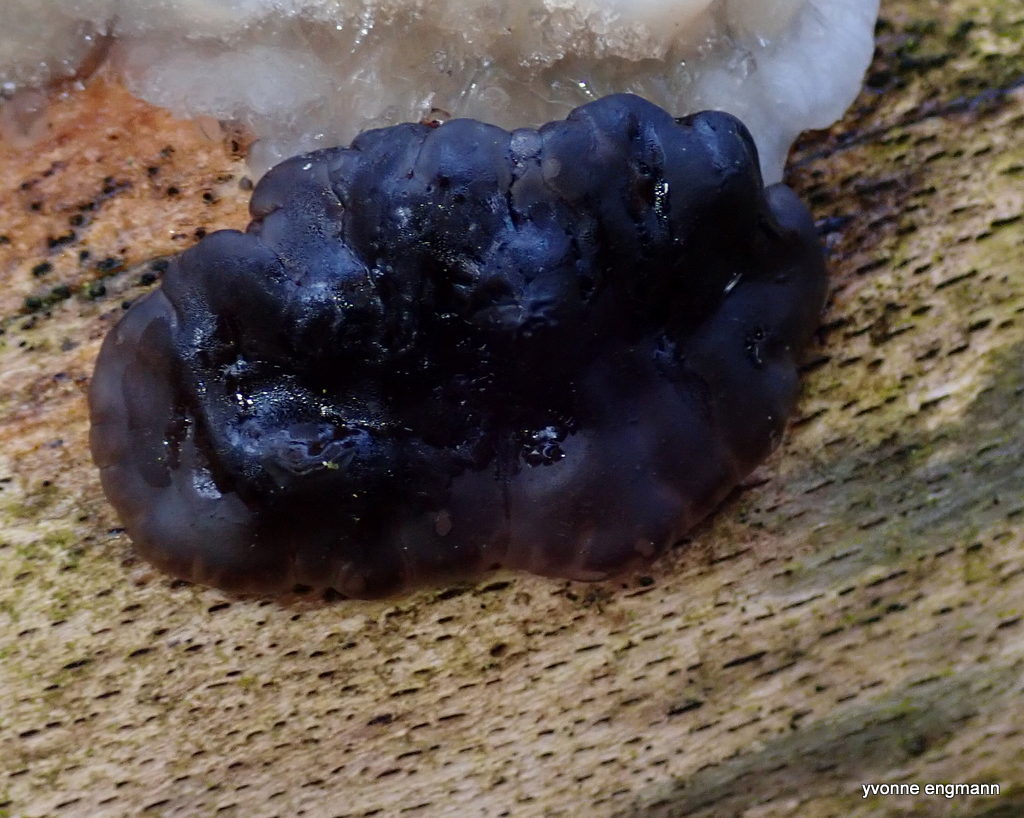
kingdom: Fungi
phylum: Basidiomycota
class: Agaricomycetes
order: Auriculariales
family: Auriculariaceae
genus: Exidia
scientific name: Exidia nigricans
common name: almindelig bævretop
